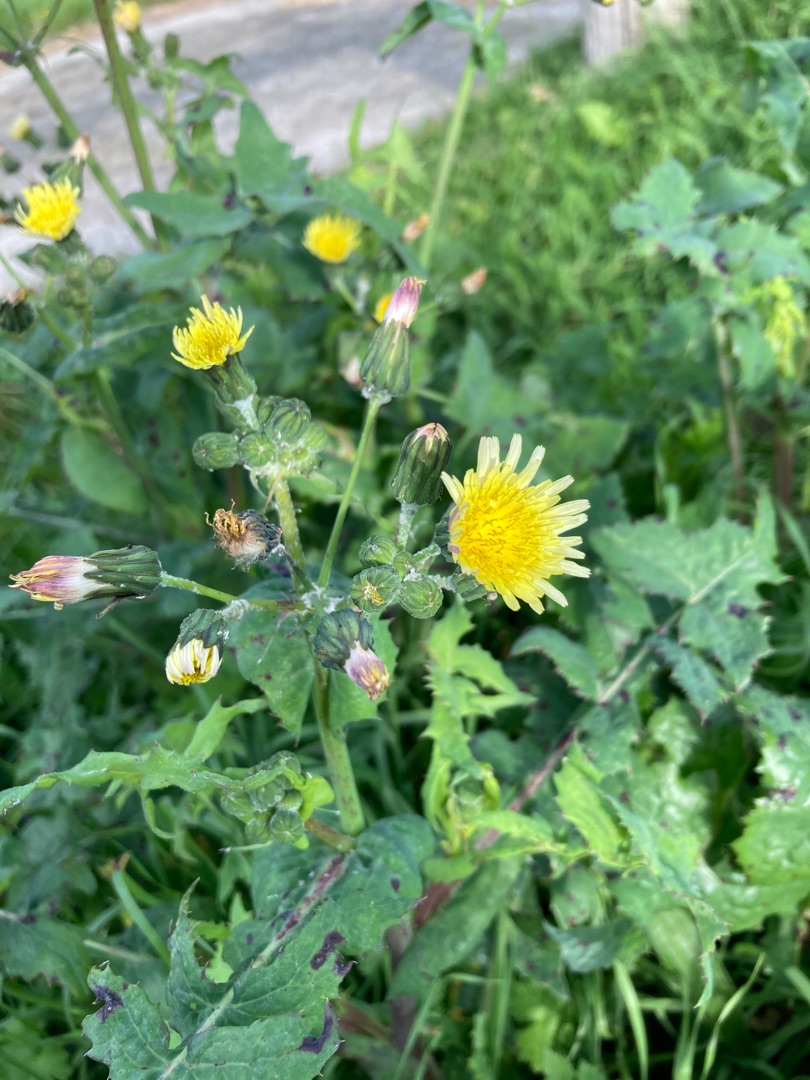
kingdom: Plantae
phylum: Tracheophyta
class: Magnoliopsida
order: Asterales
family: Asteraceae
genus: Sonchus
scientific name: Sonchus oleraceus
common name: Almindelig svinemælk
